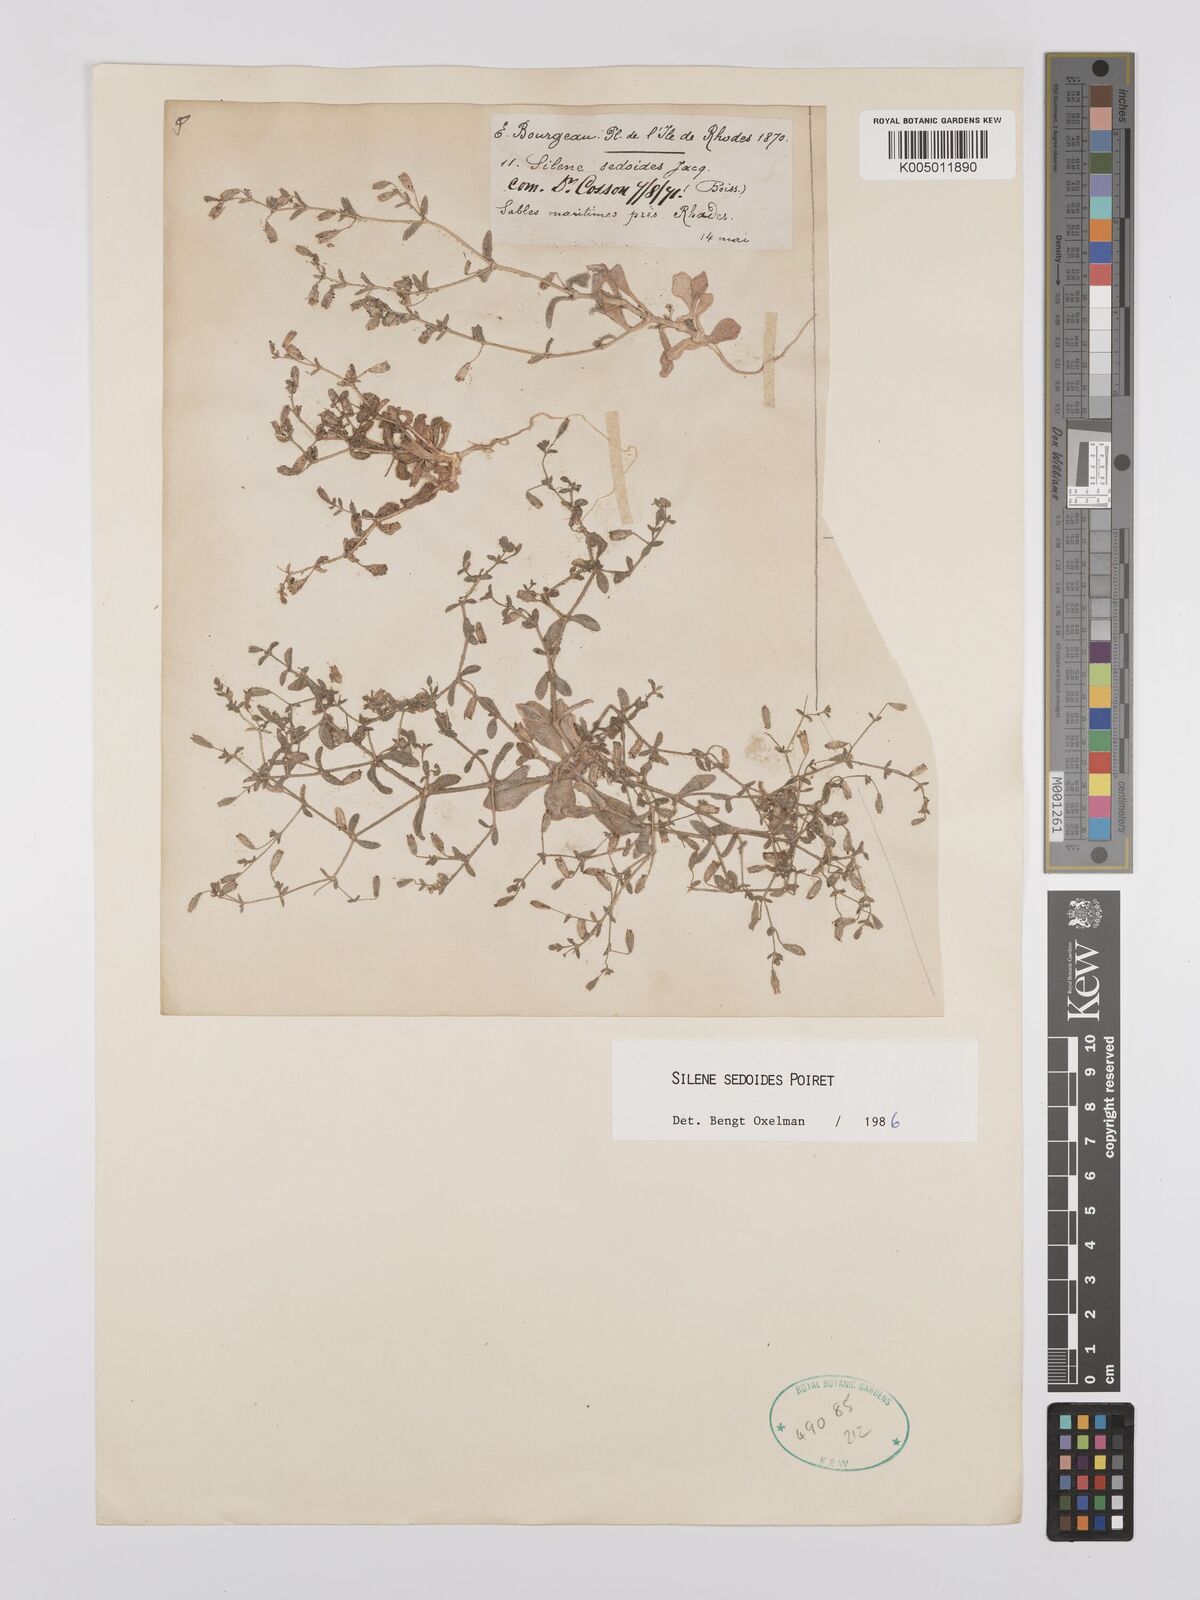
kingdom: Plantae
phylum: Tracheophyta
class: Magnoliopsida
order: Caryophyllales
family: Caryophyllaceae
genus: Silene
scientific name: Silene sedoides
